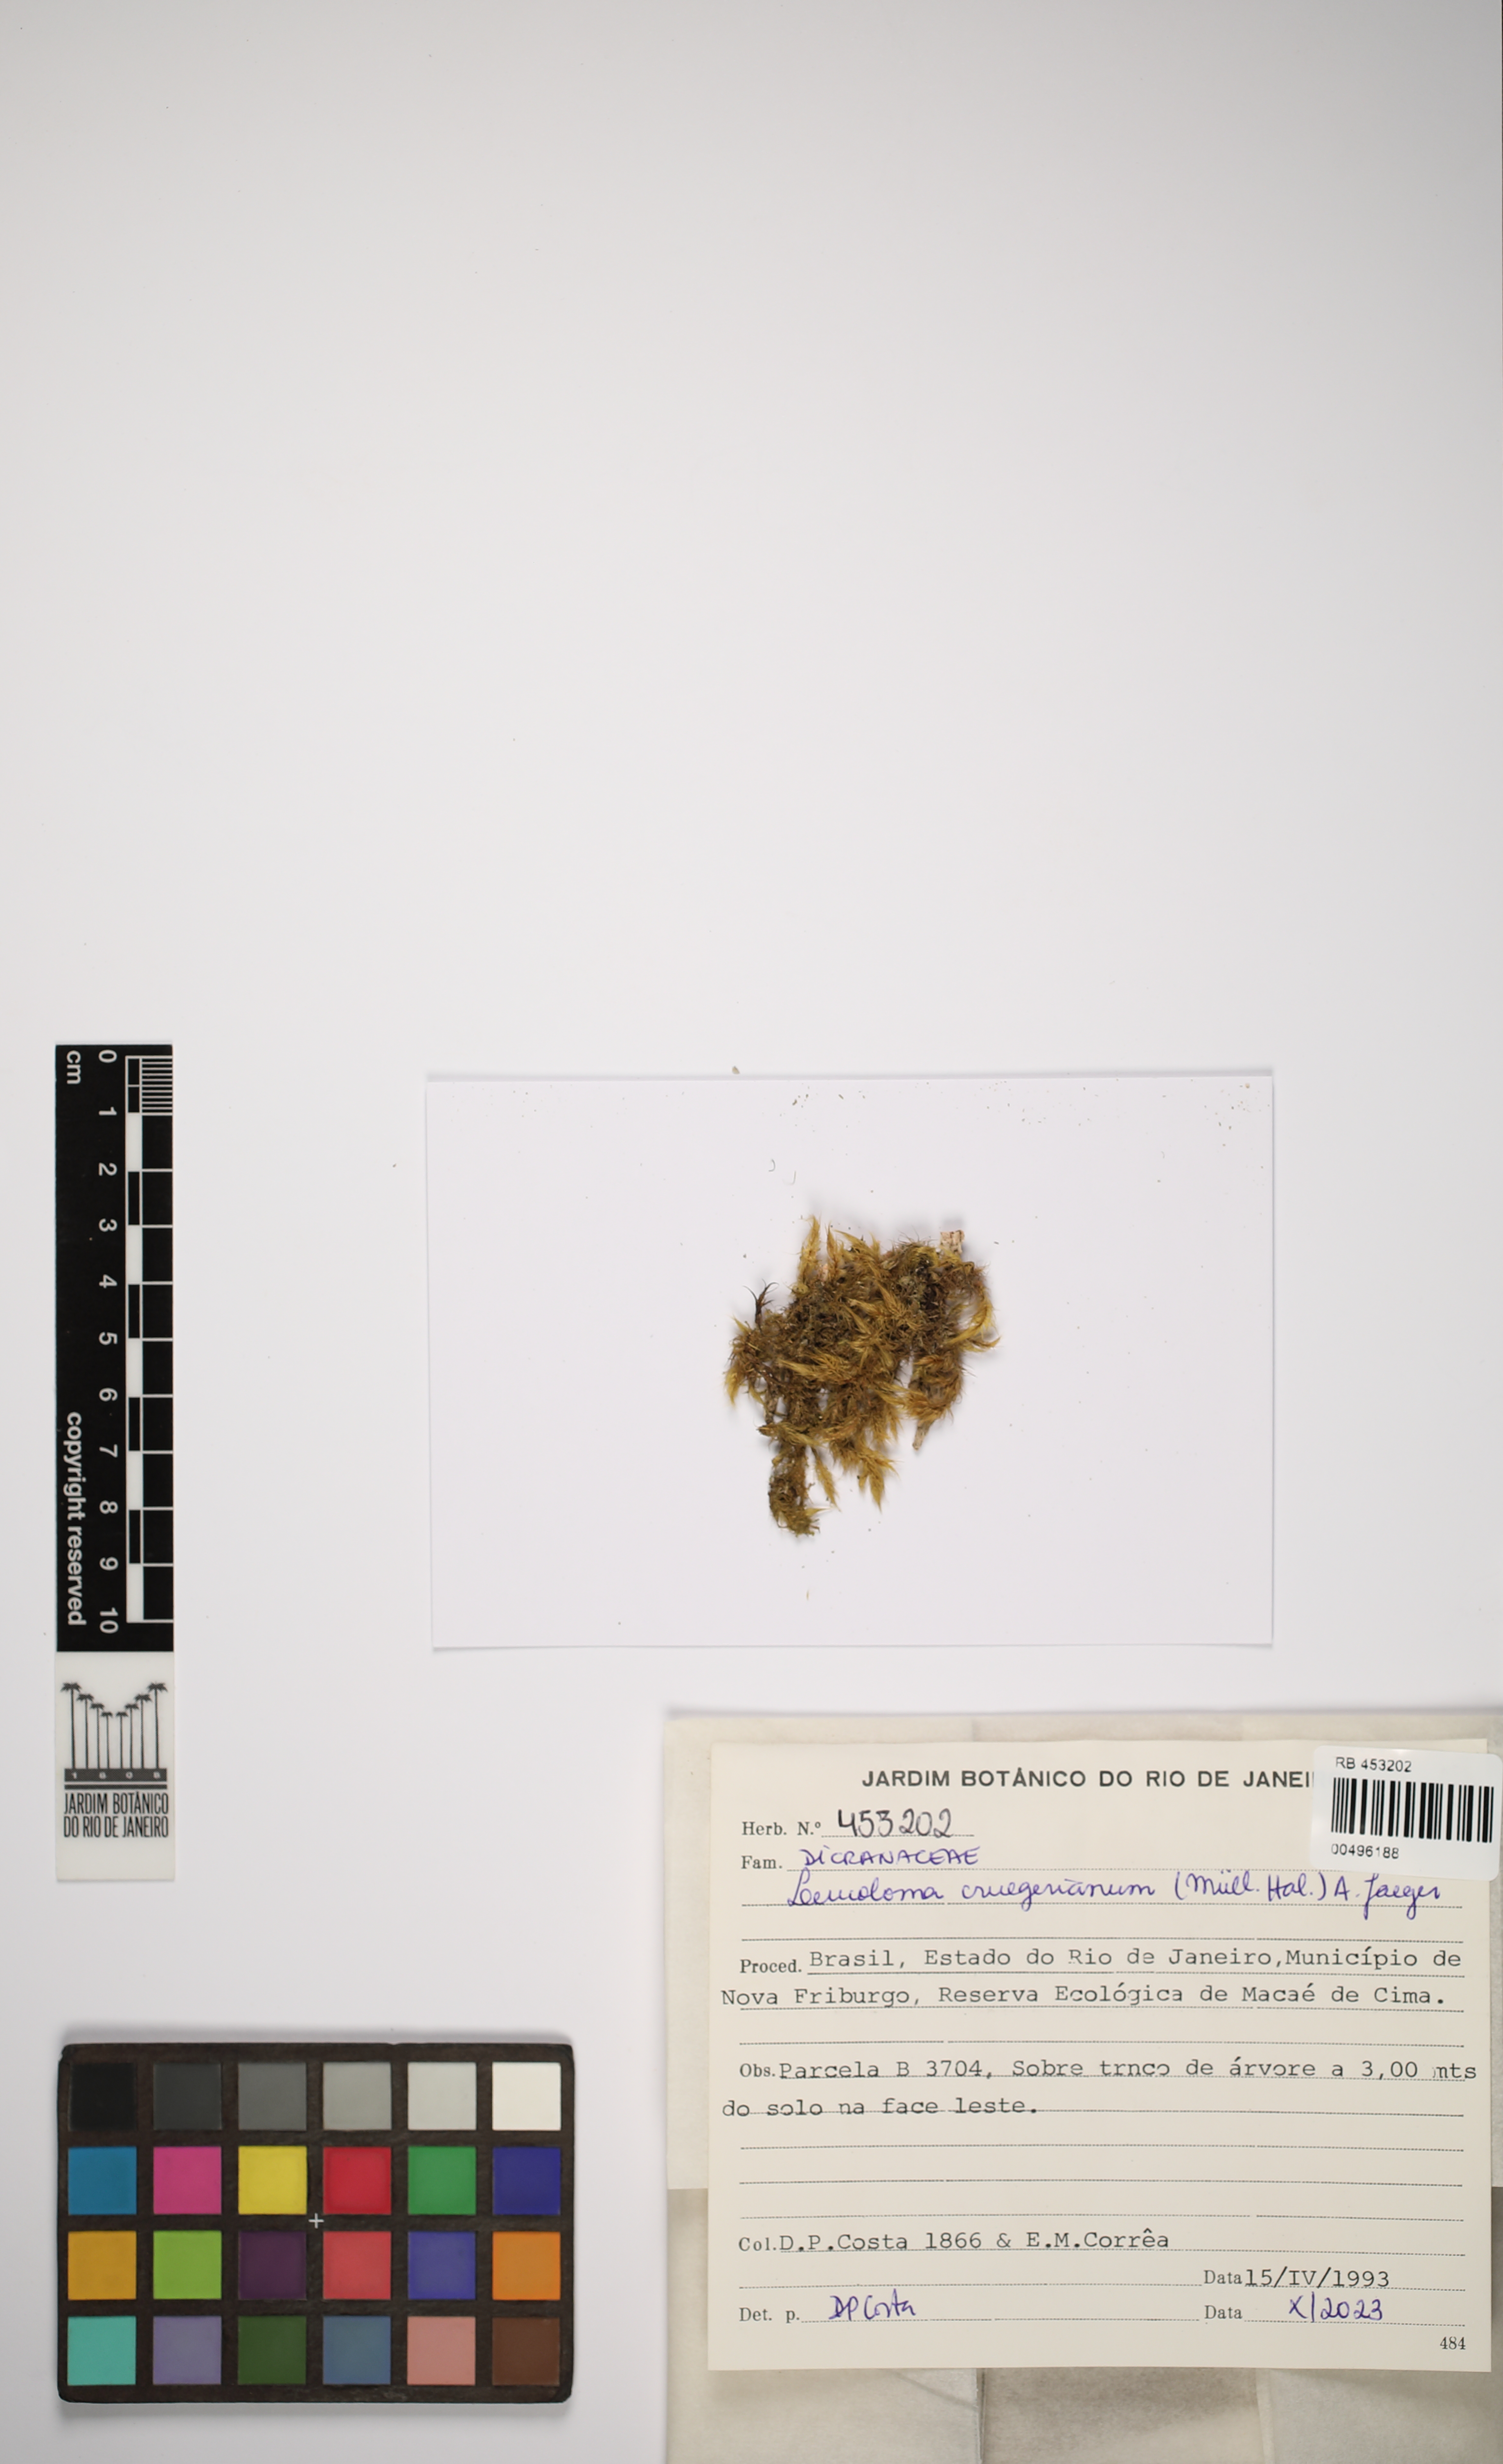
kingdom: Plantae
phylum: Bryophyta
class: Bryopsida
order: Dicranales
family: Dicranaceae
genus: Leucoloma
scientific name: Leucoloma cruegerianum
